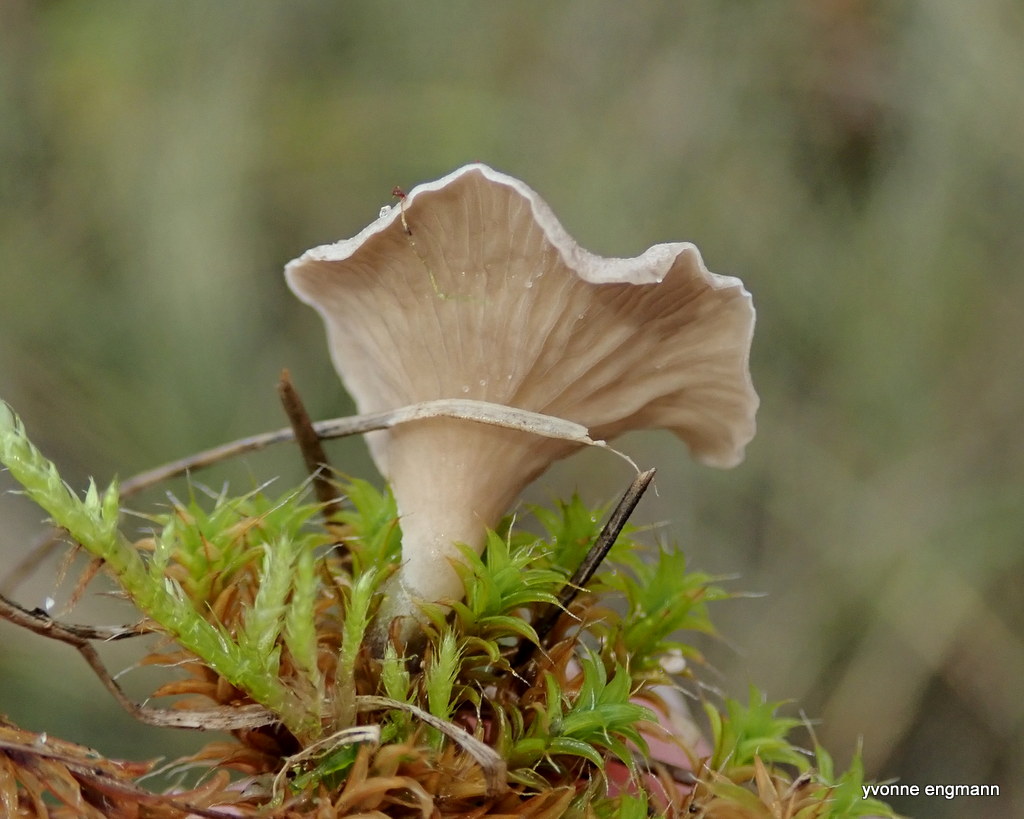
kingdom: Fungi
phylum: Basidiomycota
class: Agaricomycetes
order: Agaricales
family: Hygrophoraceae
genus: Arrhenia
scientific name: Arrhenia spathulata
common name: skæv fontænehat
